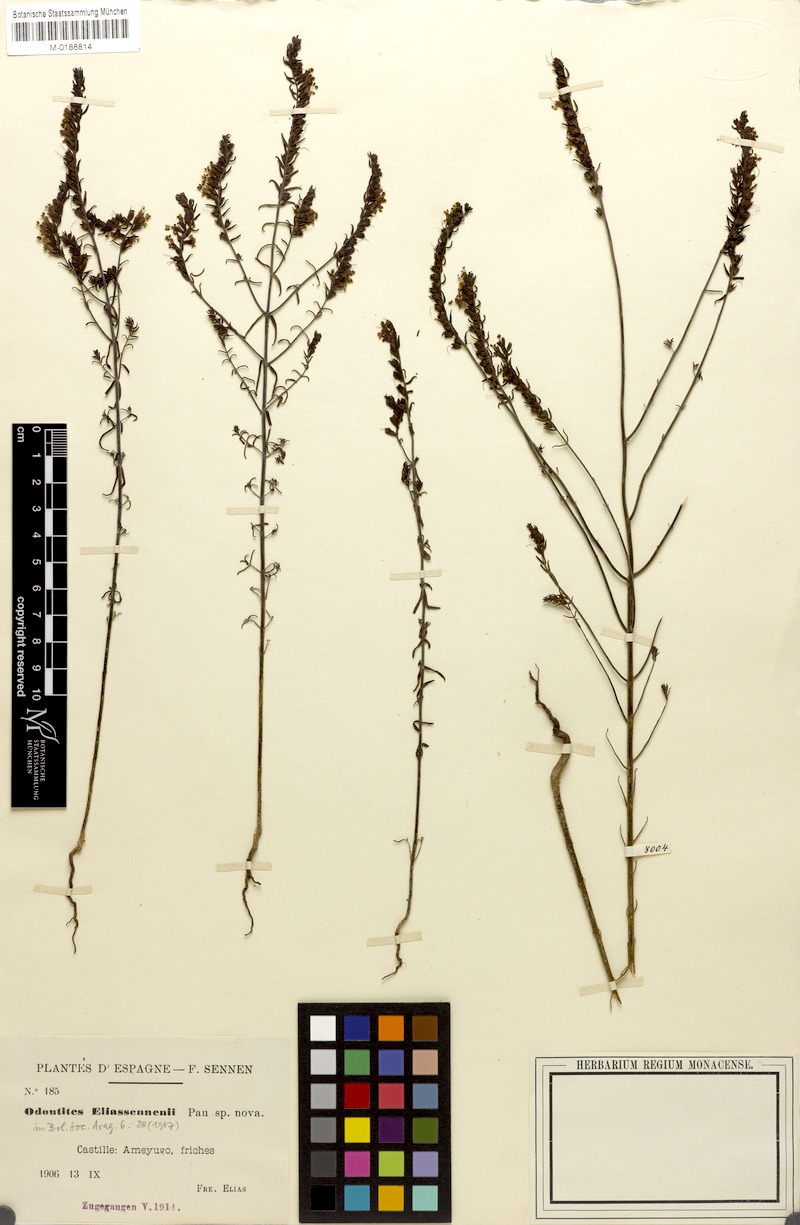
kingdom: Plantae
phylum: Tracheophyta
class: Magnoliopsida
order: Lamiales
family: Orobanchaceae
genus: Odontites
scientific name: Odontites recordonii
